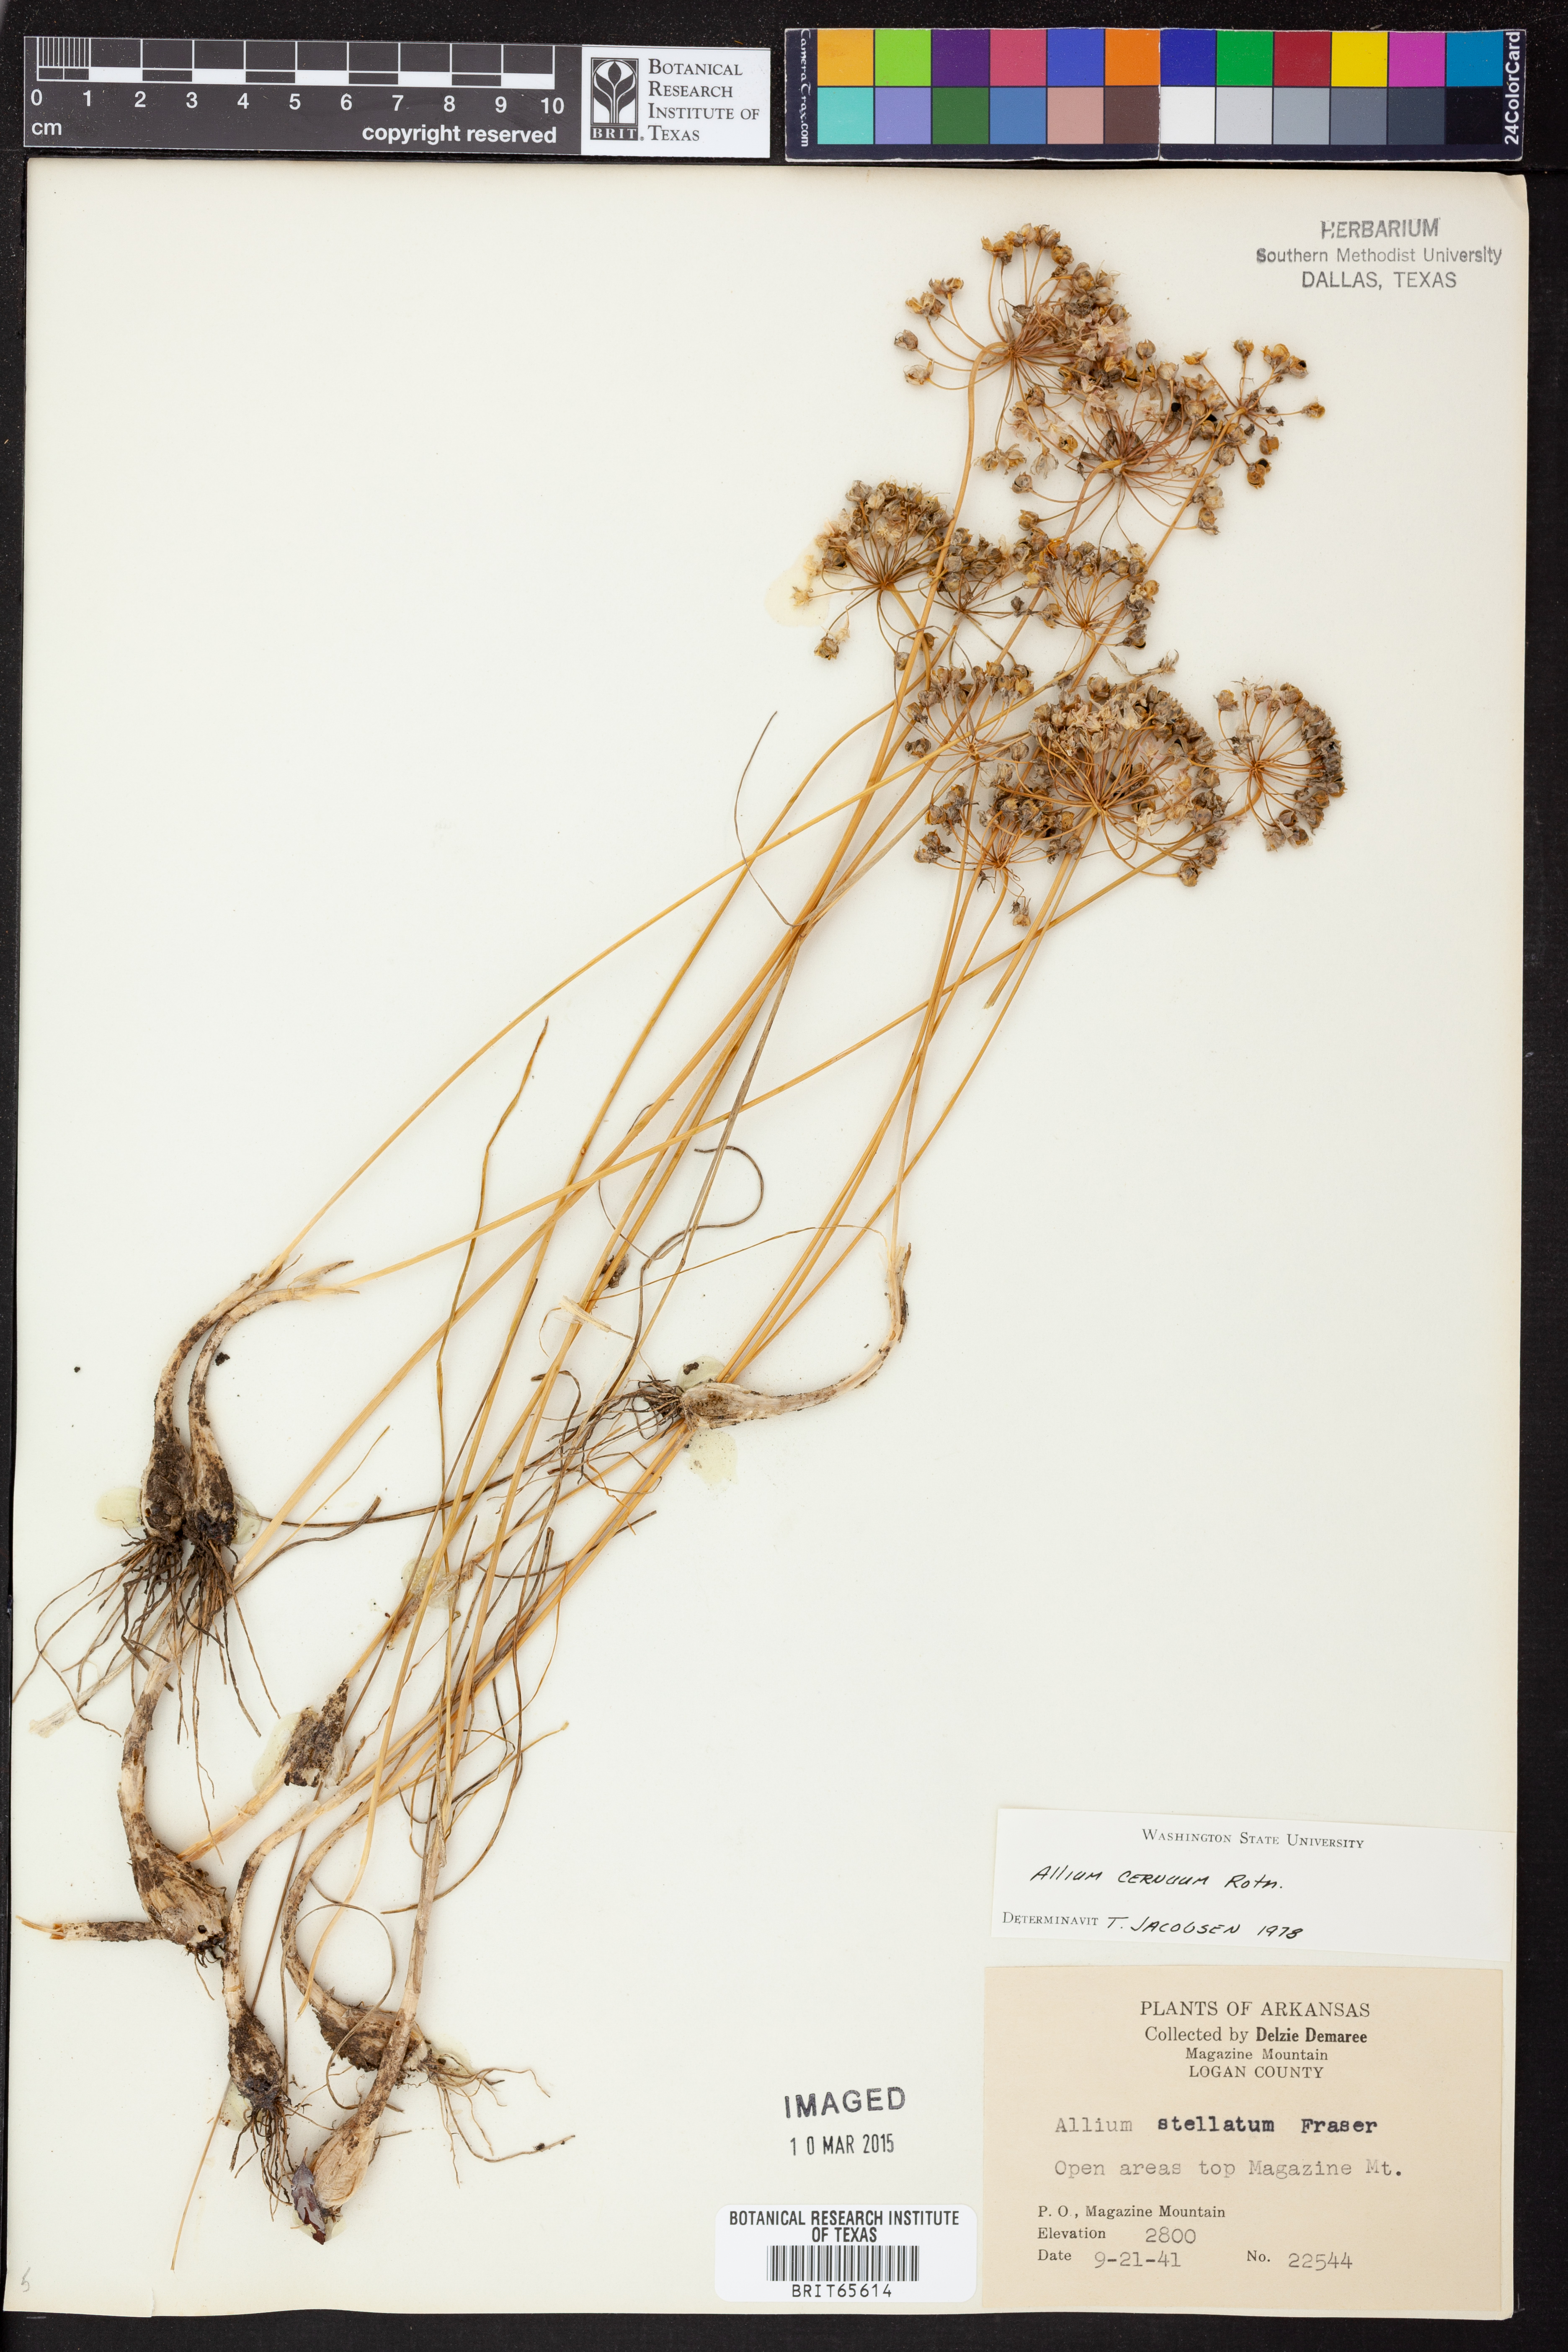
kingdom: Plantae
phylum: Tracheophyta
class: Liliopsida
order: Asparagales
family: Amaryllidaceae
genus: Allium
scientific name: Allium cernuum
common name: Nodding onion
